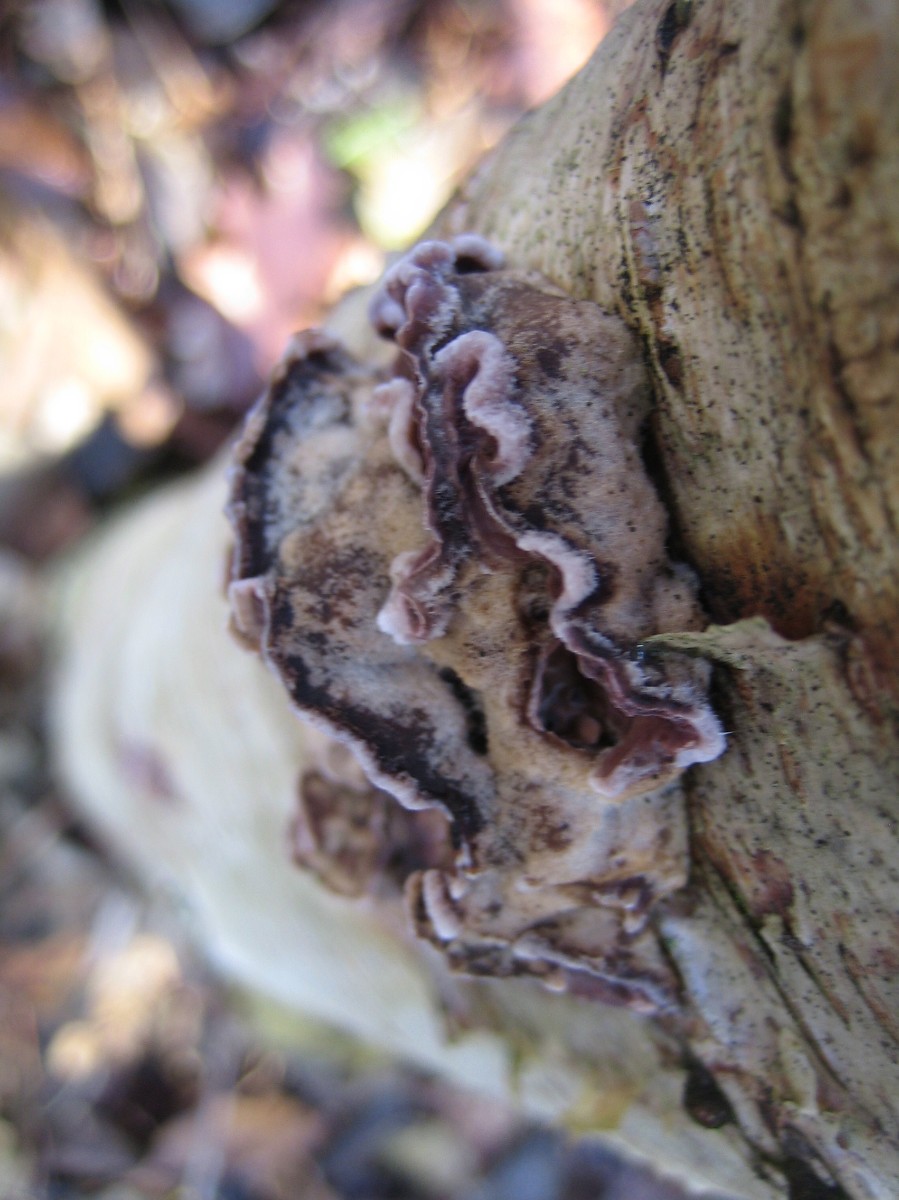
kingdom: Fungi
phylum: Basidiomycota
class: Agaricomycetes
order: Agaricales
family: Cyphellaceae
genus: Chondrostereum
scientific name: Chondrostereum purpureum
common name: purpurlædersvamp
